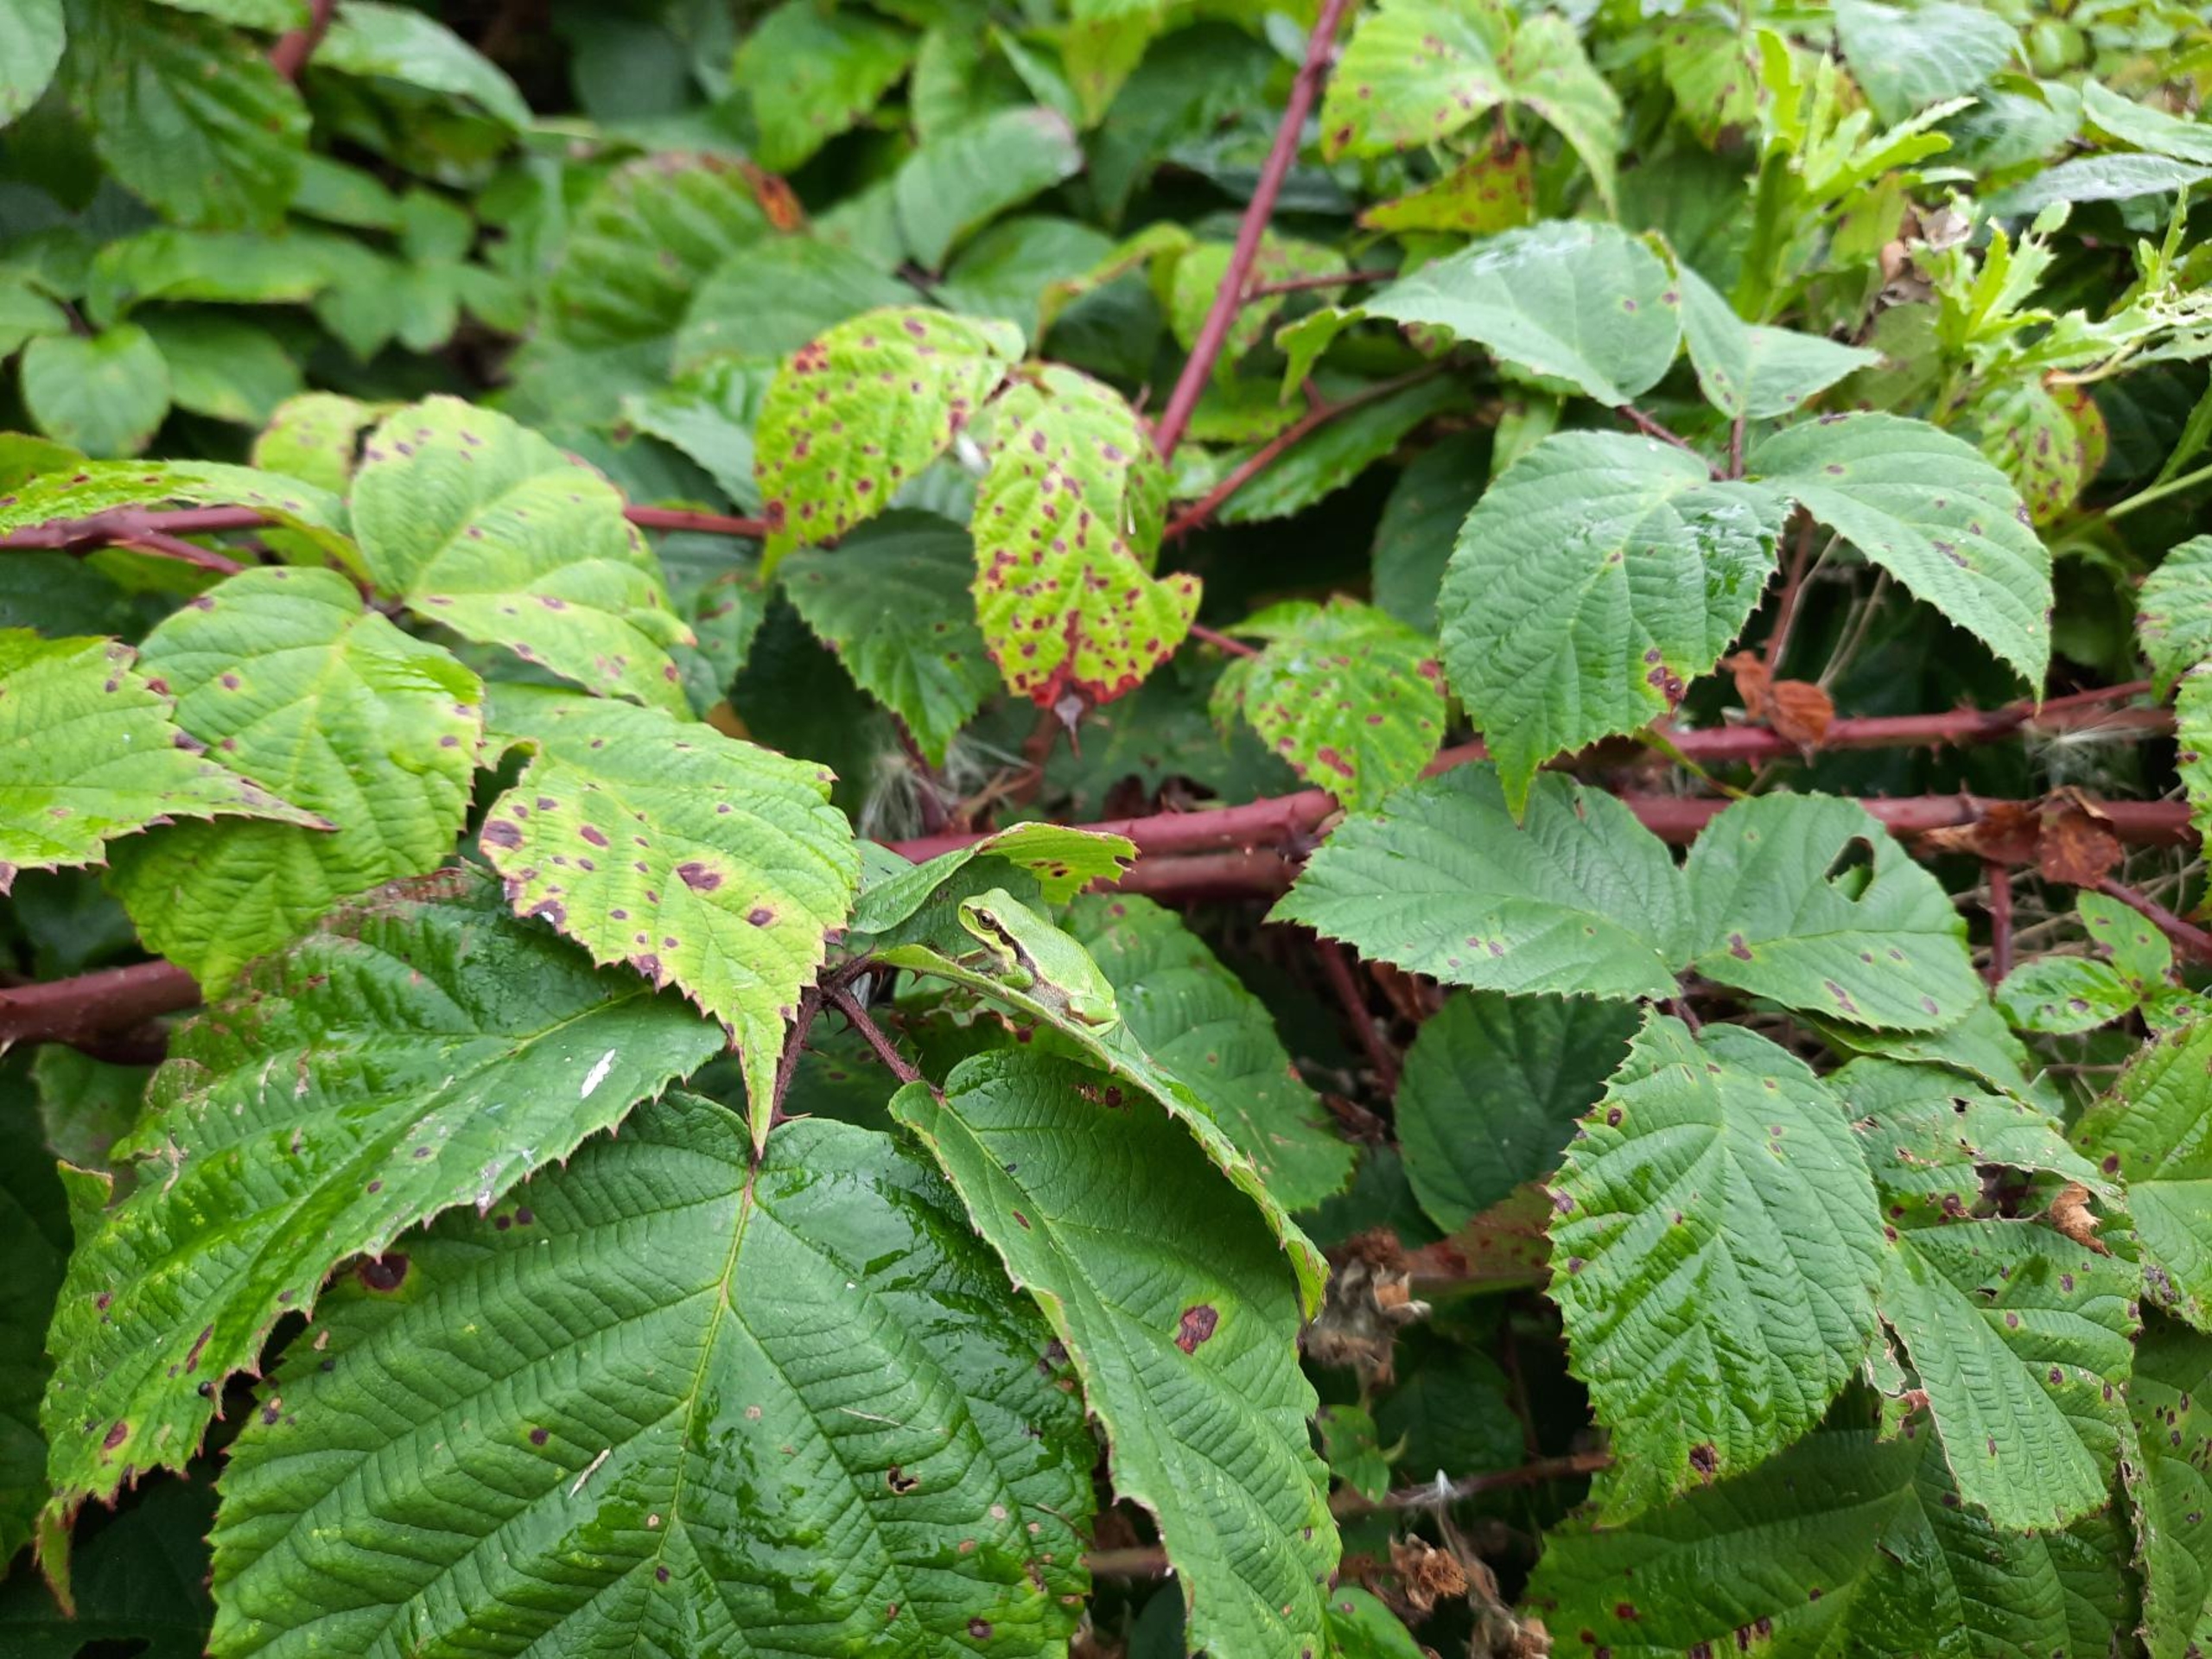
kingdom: Animalia
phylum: Chordata
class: Amphibia
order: Anura
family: Hylidae
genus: Hyla
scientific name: Hyla arborea
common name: Løvfrø
